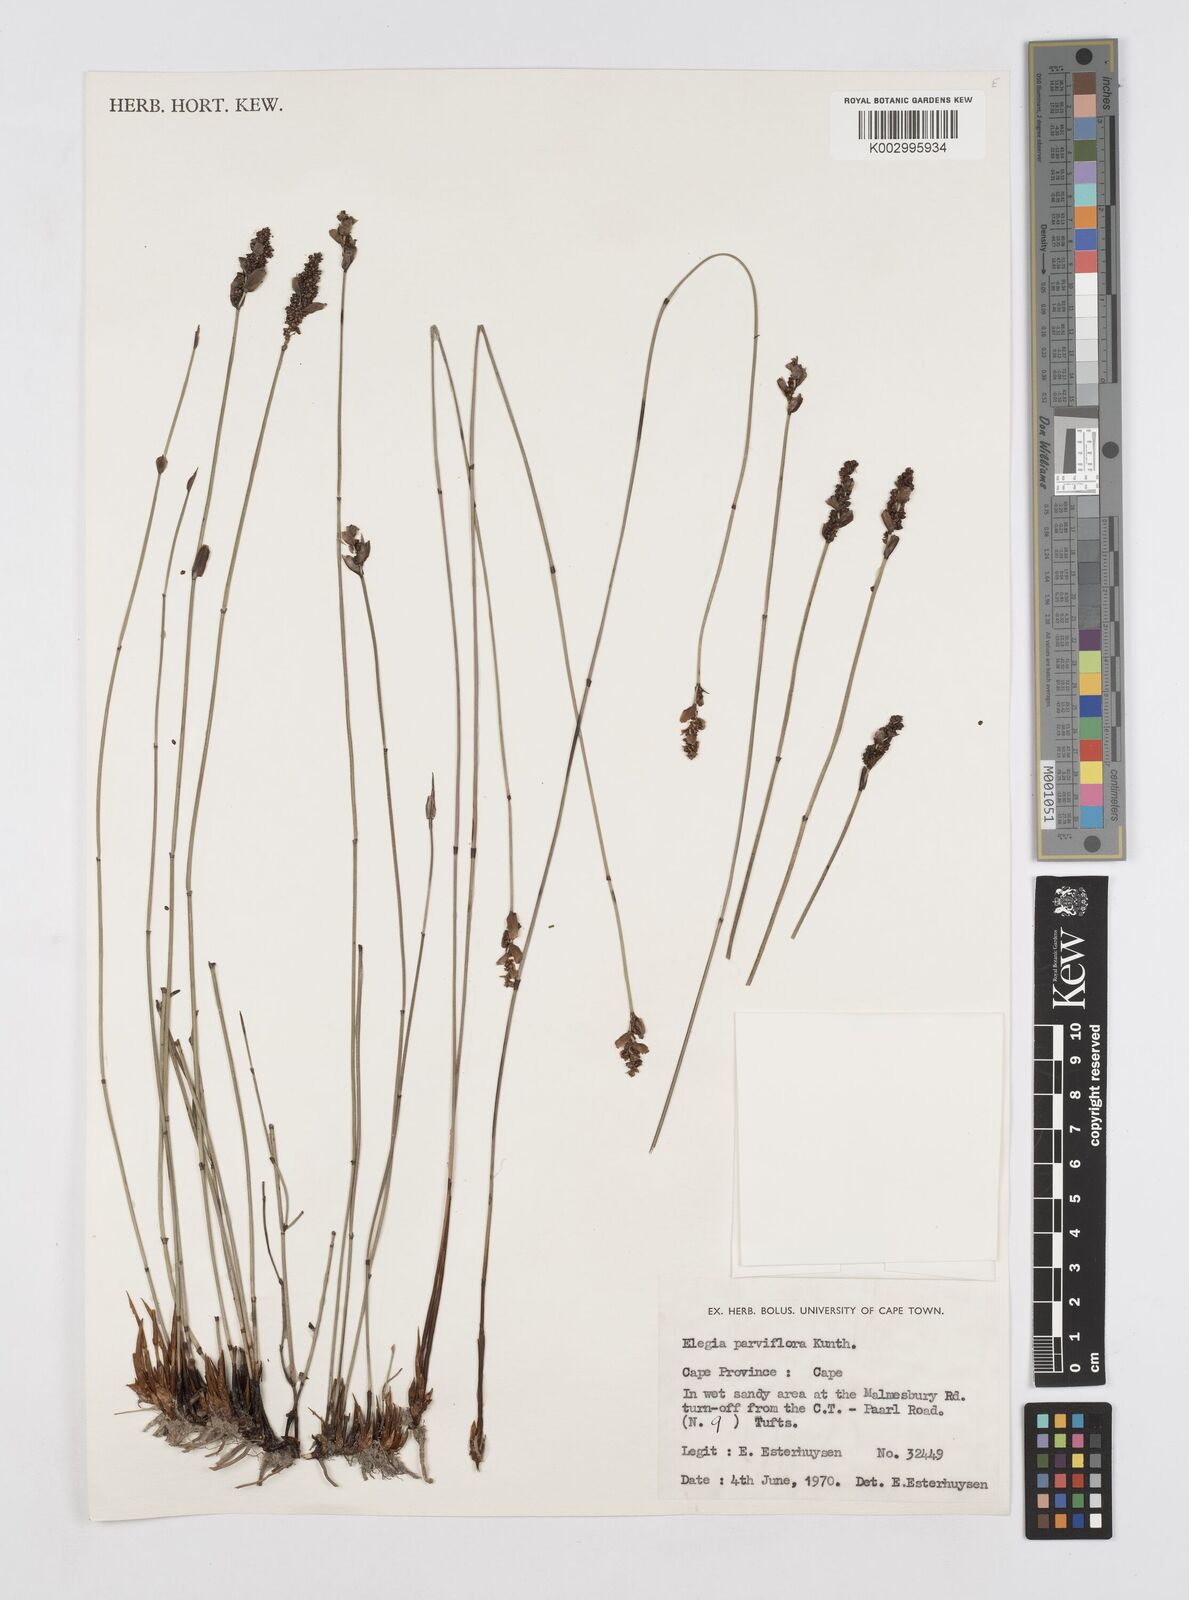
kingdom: Plantae
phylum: Tracheophyta
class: Liliopsida
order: Poales
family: Restionaceae
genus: Cannomois
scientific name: Cannomois parviflora
